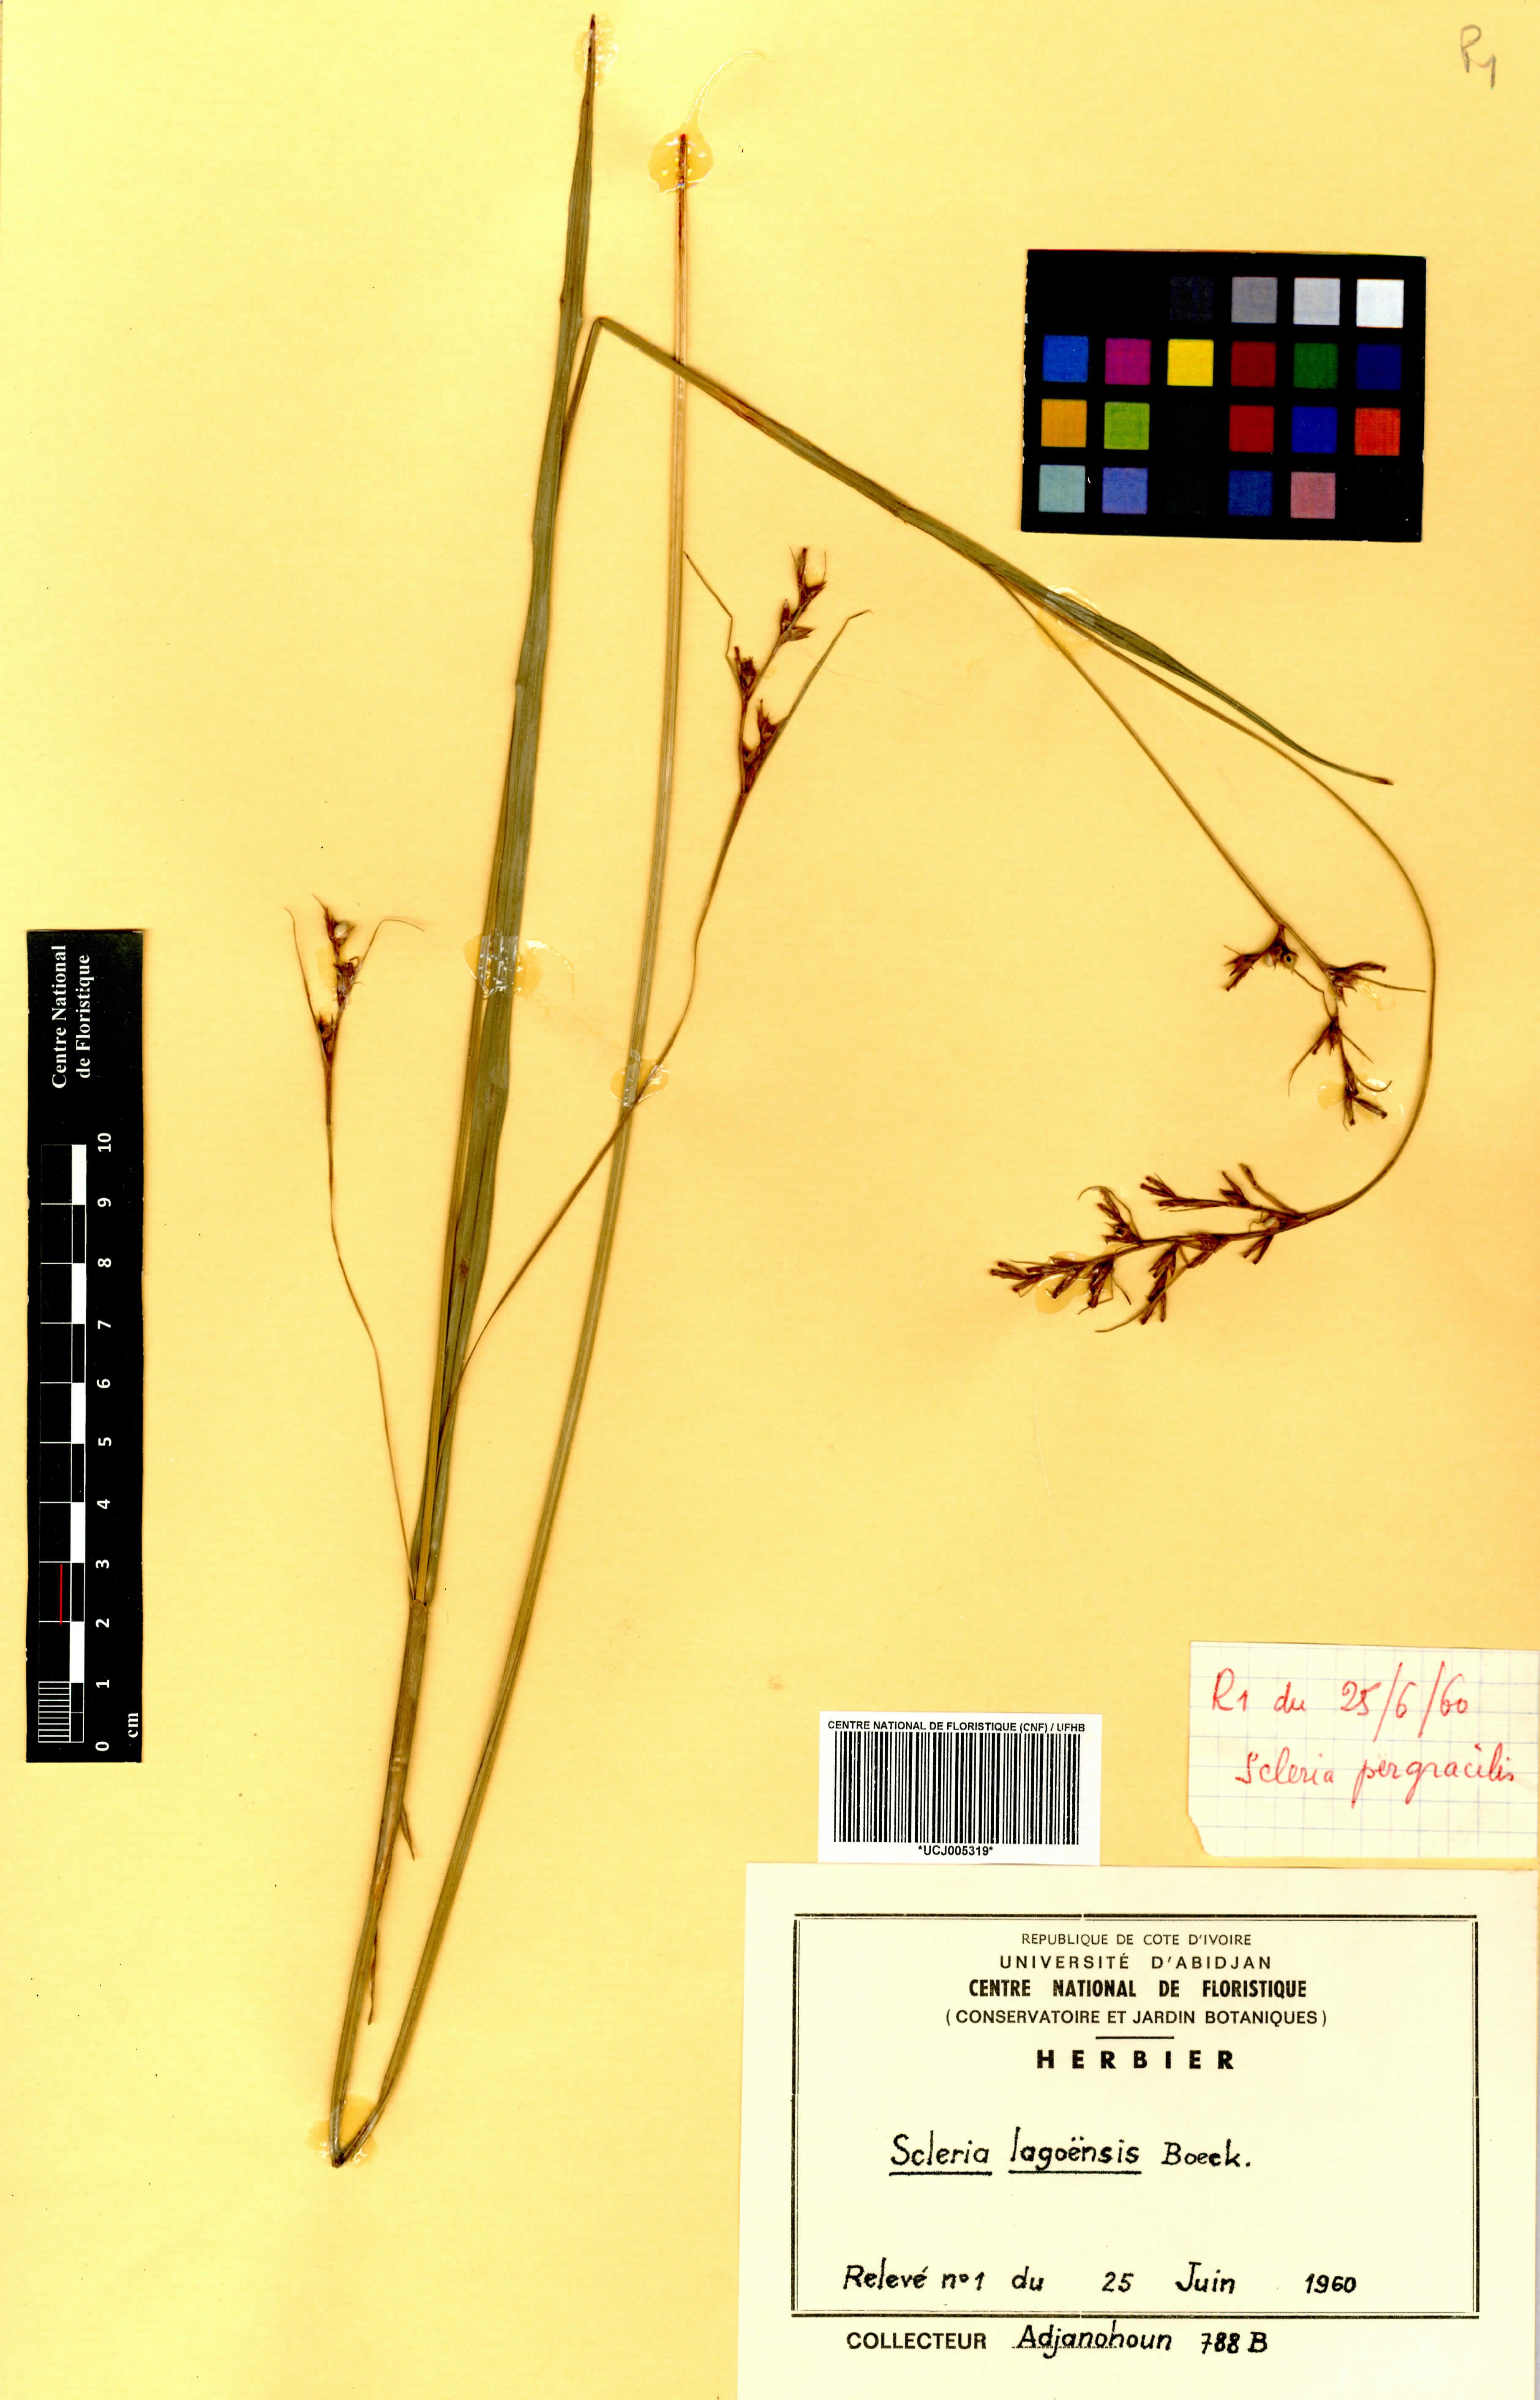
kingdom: Plantae
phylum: Tracheophyta
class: Liliopsida
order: Poales
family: Cyperaceae
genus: Scleria
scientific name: Scleria lagoensis
